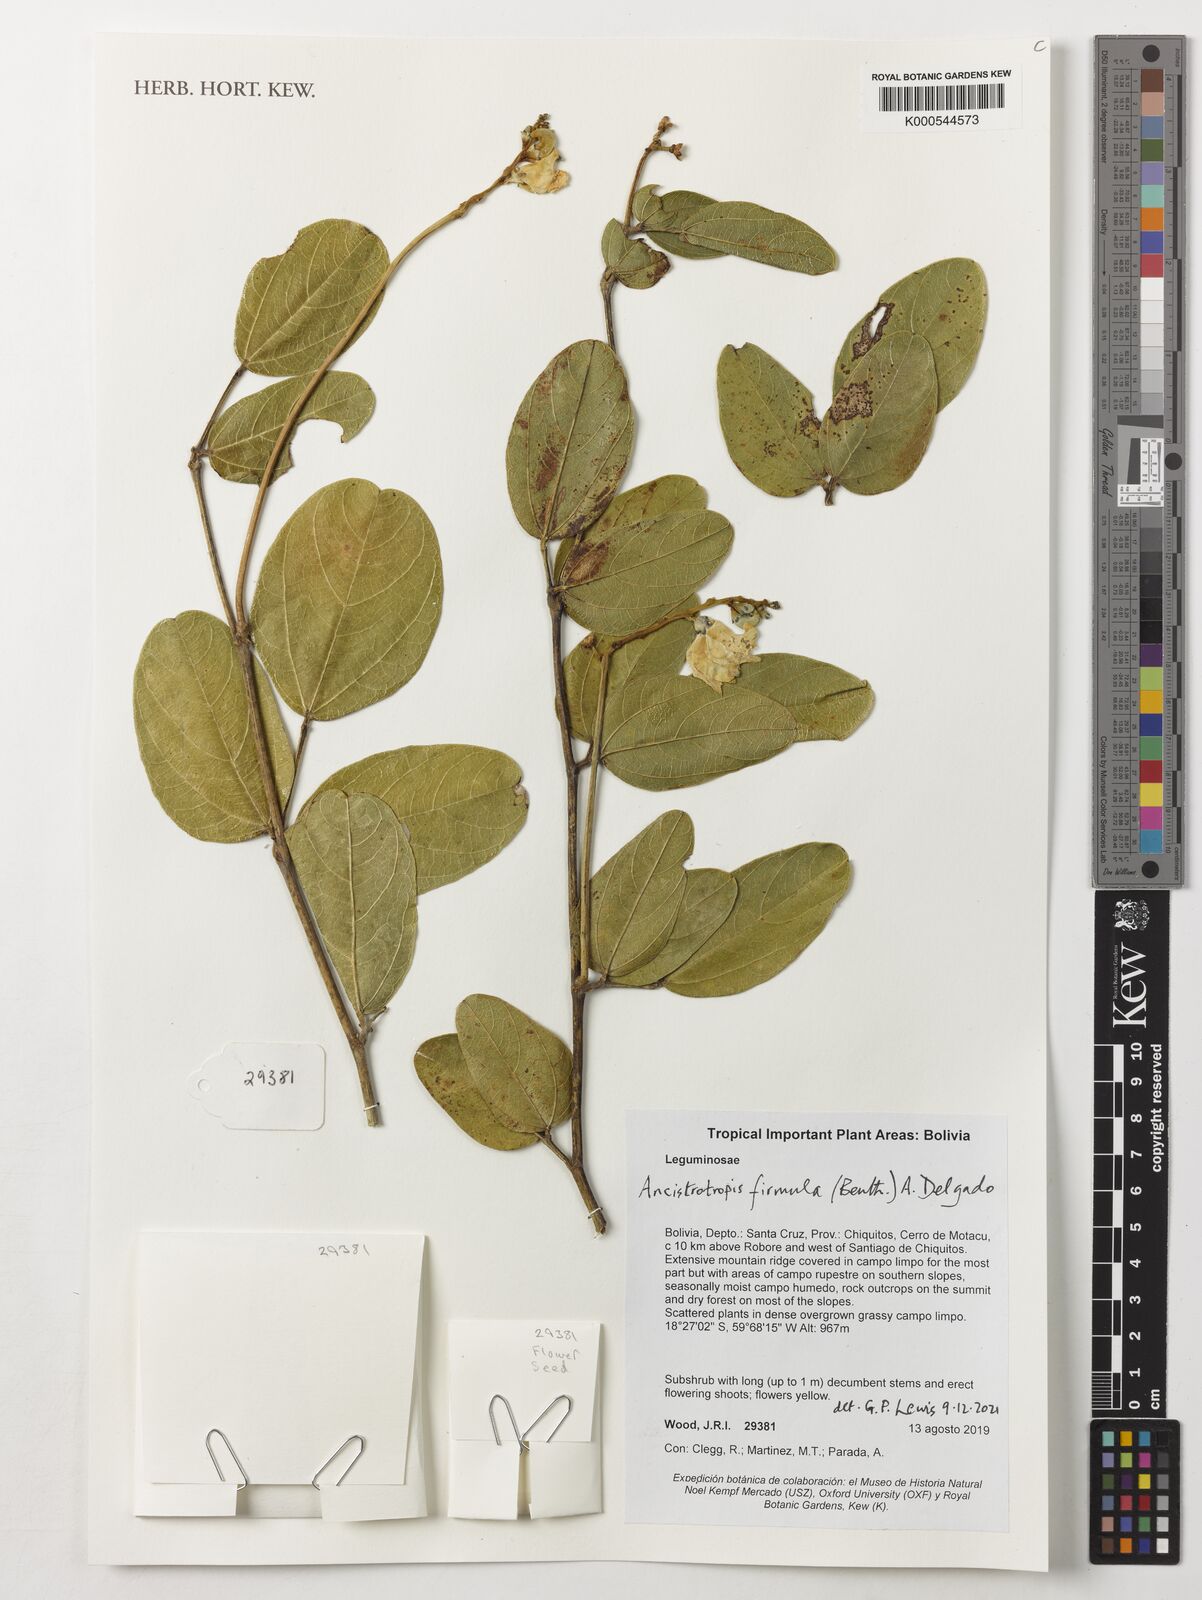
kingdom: Plantae
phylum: Tracheophyta
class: Magnoliopsida
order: Fabales
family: Fabaceae
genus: Ancistrotropis
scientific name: Ancistrotropis firmula
